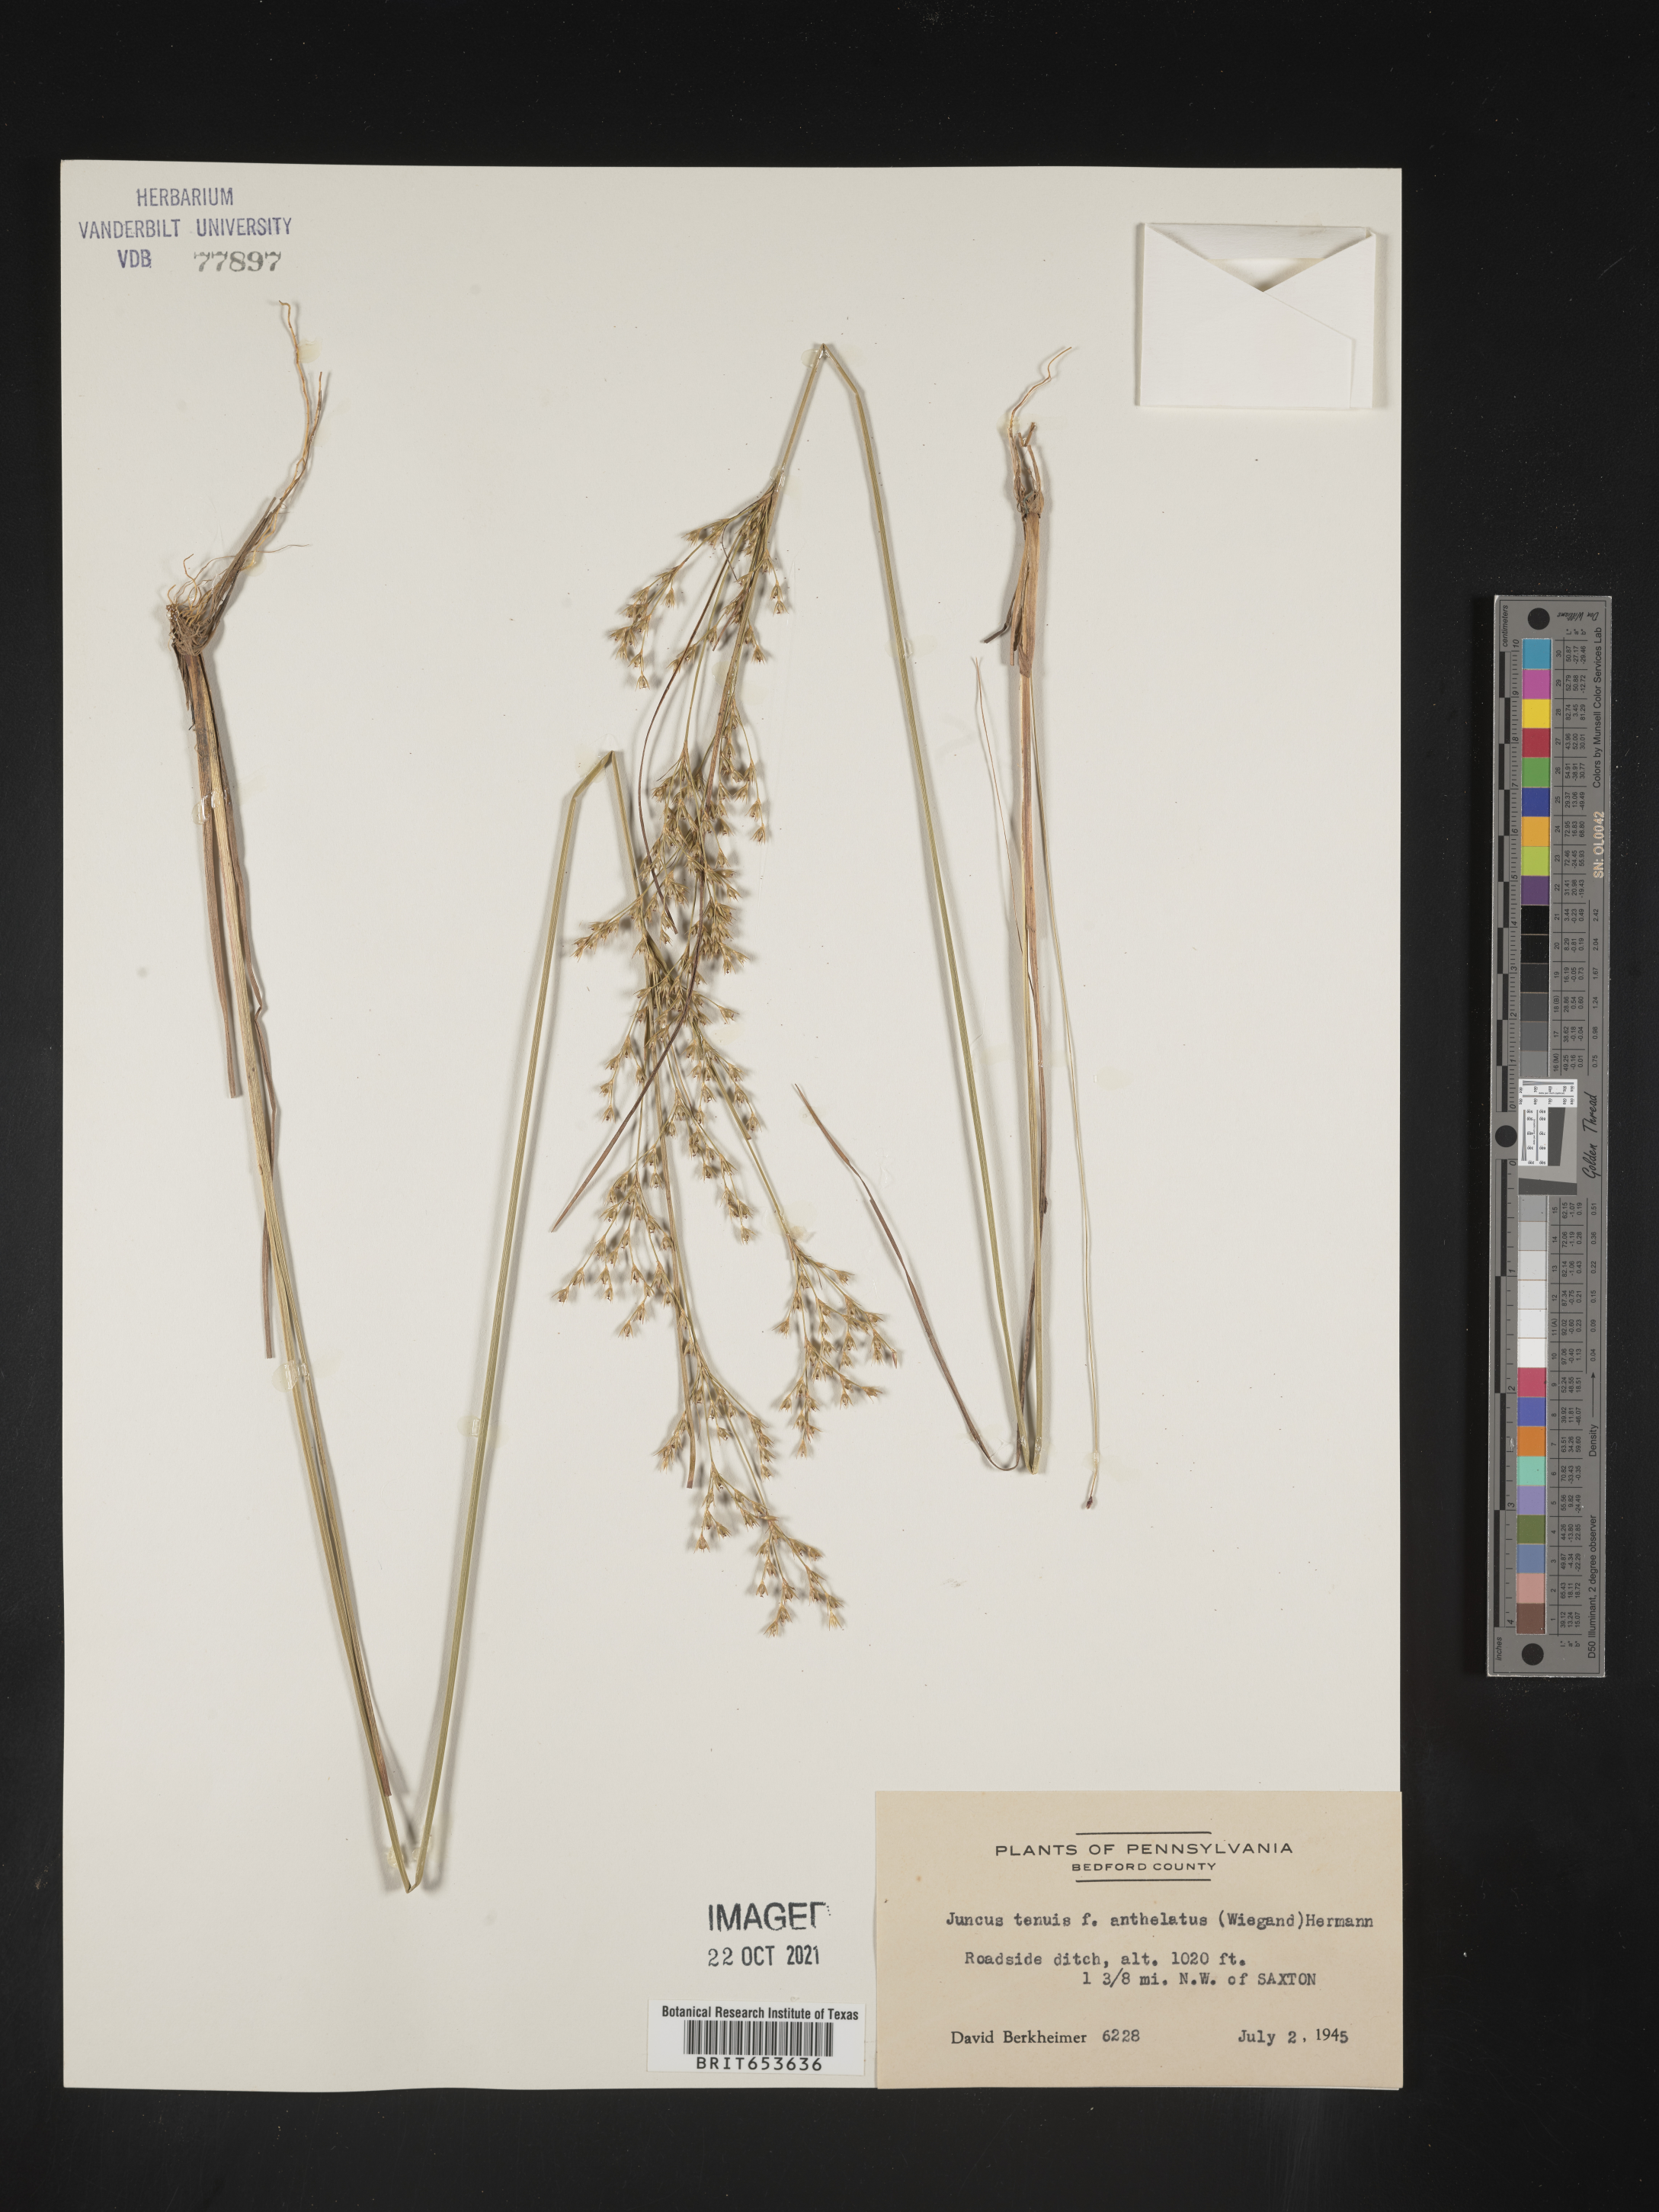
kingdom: Plantae
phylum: Tracheophyta
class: Liliopsida
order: Poales
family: Juncaceae
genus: Juncus
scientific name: Juncus tenuis
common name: Slender rush
